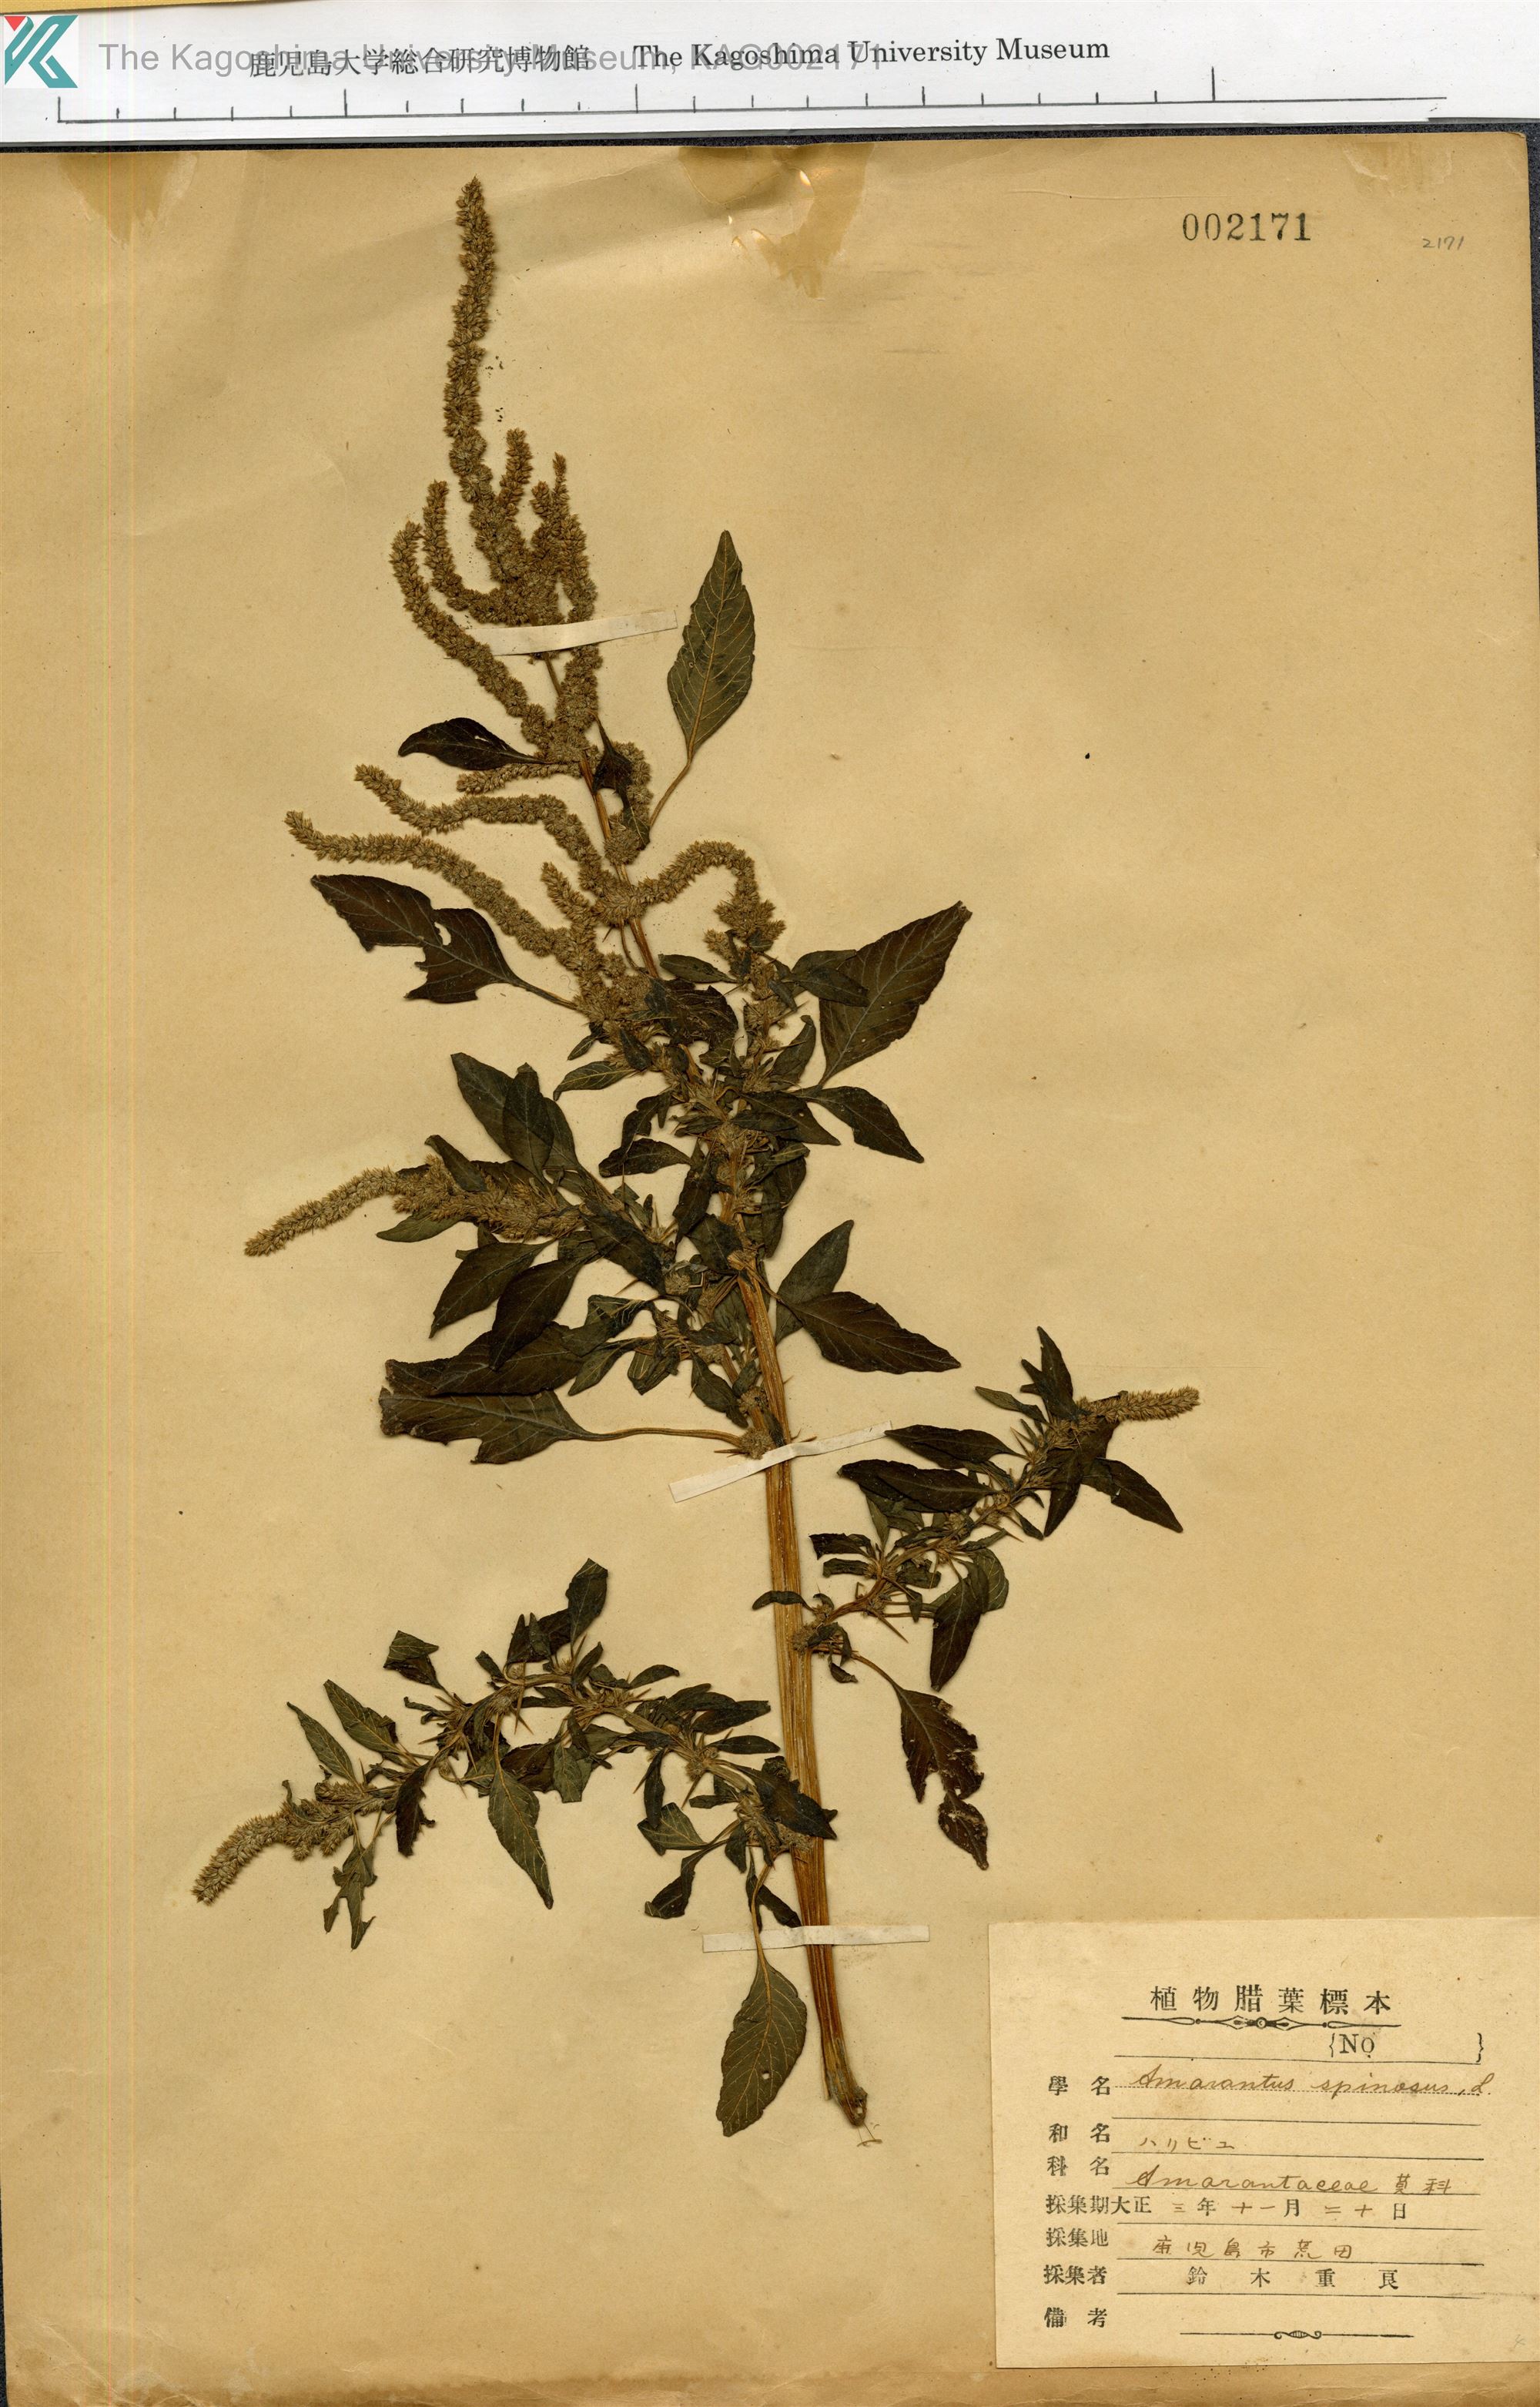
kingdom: Plantae
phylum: Tracheophyta
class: Magnoliopsida
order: Caryophyllales
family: Amaranthaceae
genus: Amaranthus
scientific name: Amaranthus spinosus
